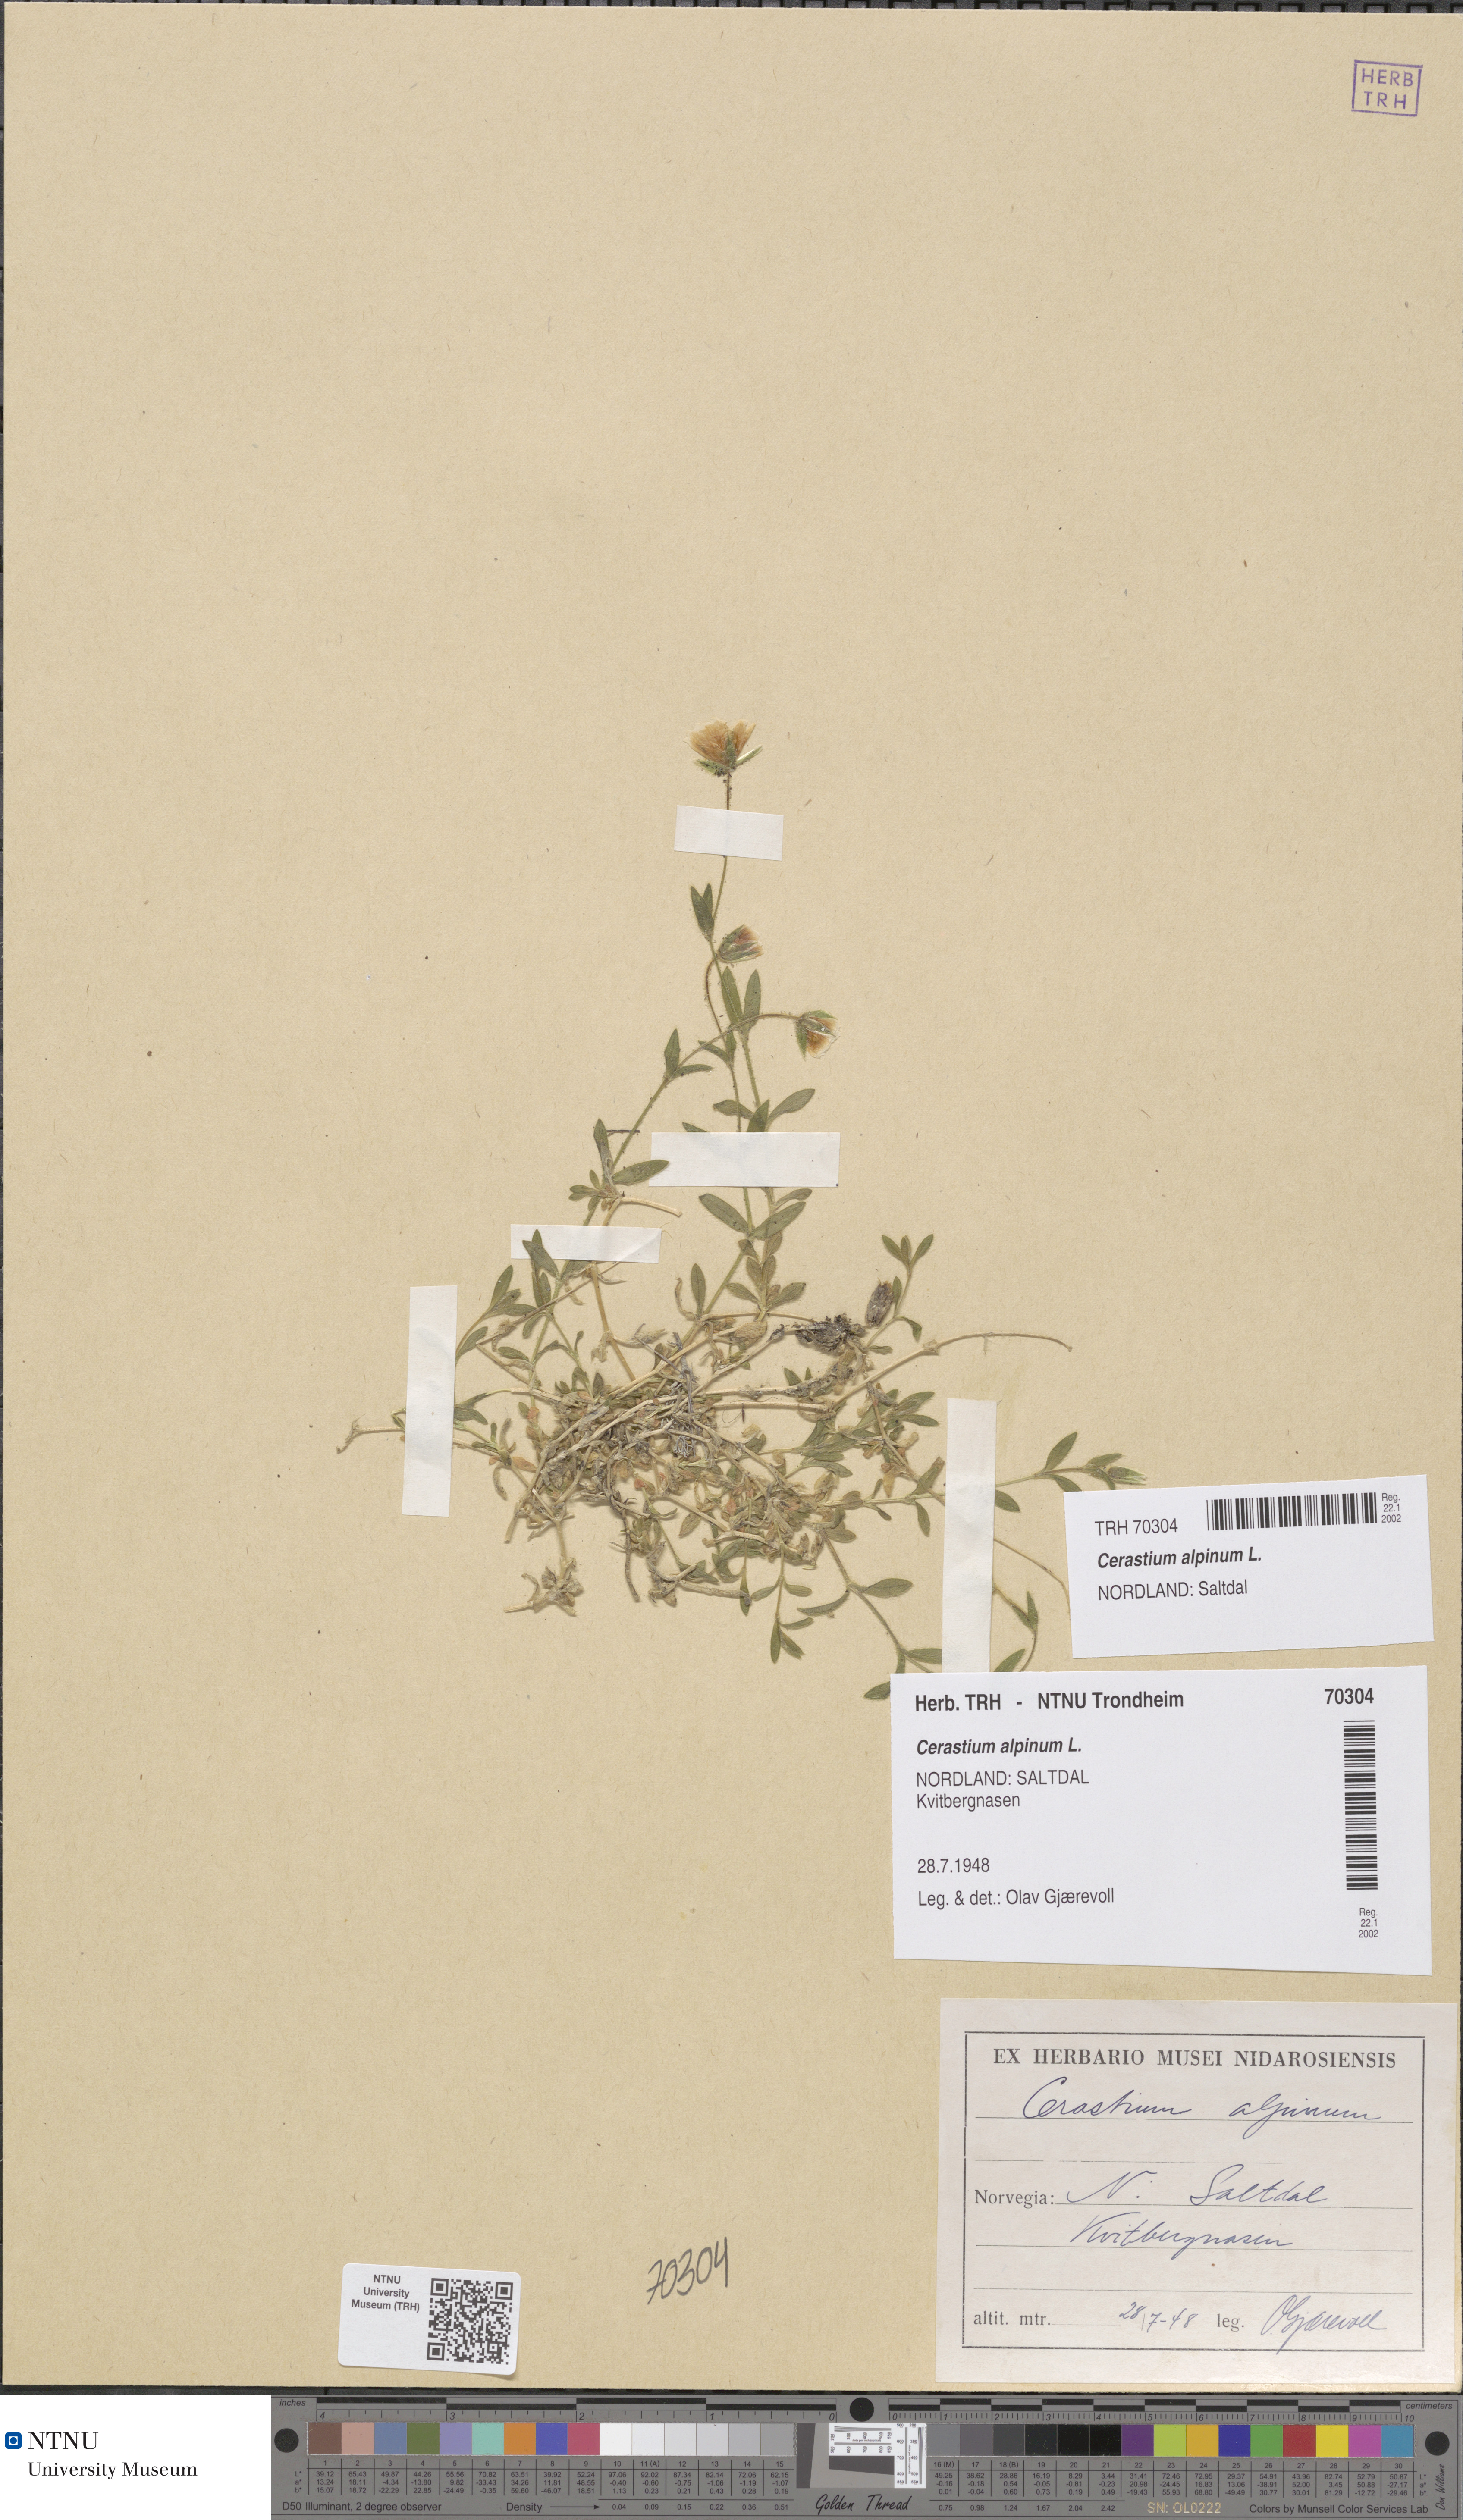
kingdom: Plantae
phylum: Tracheophyta
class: Magnoliopsida
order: Caryophyllales
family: Caryophyllaceae
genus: Cerastium
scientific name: Cerastium alpinum
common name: Alpine mouse-ear
